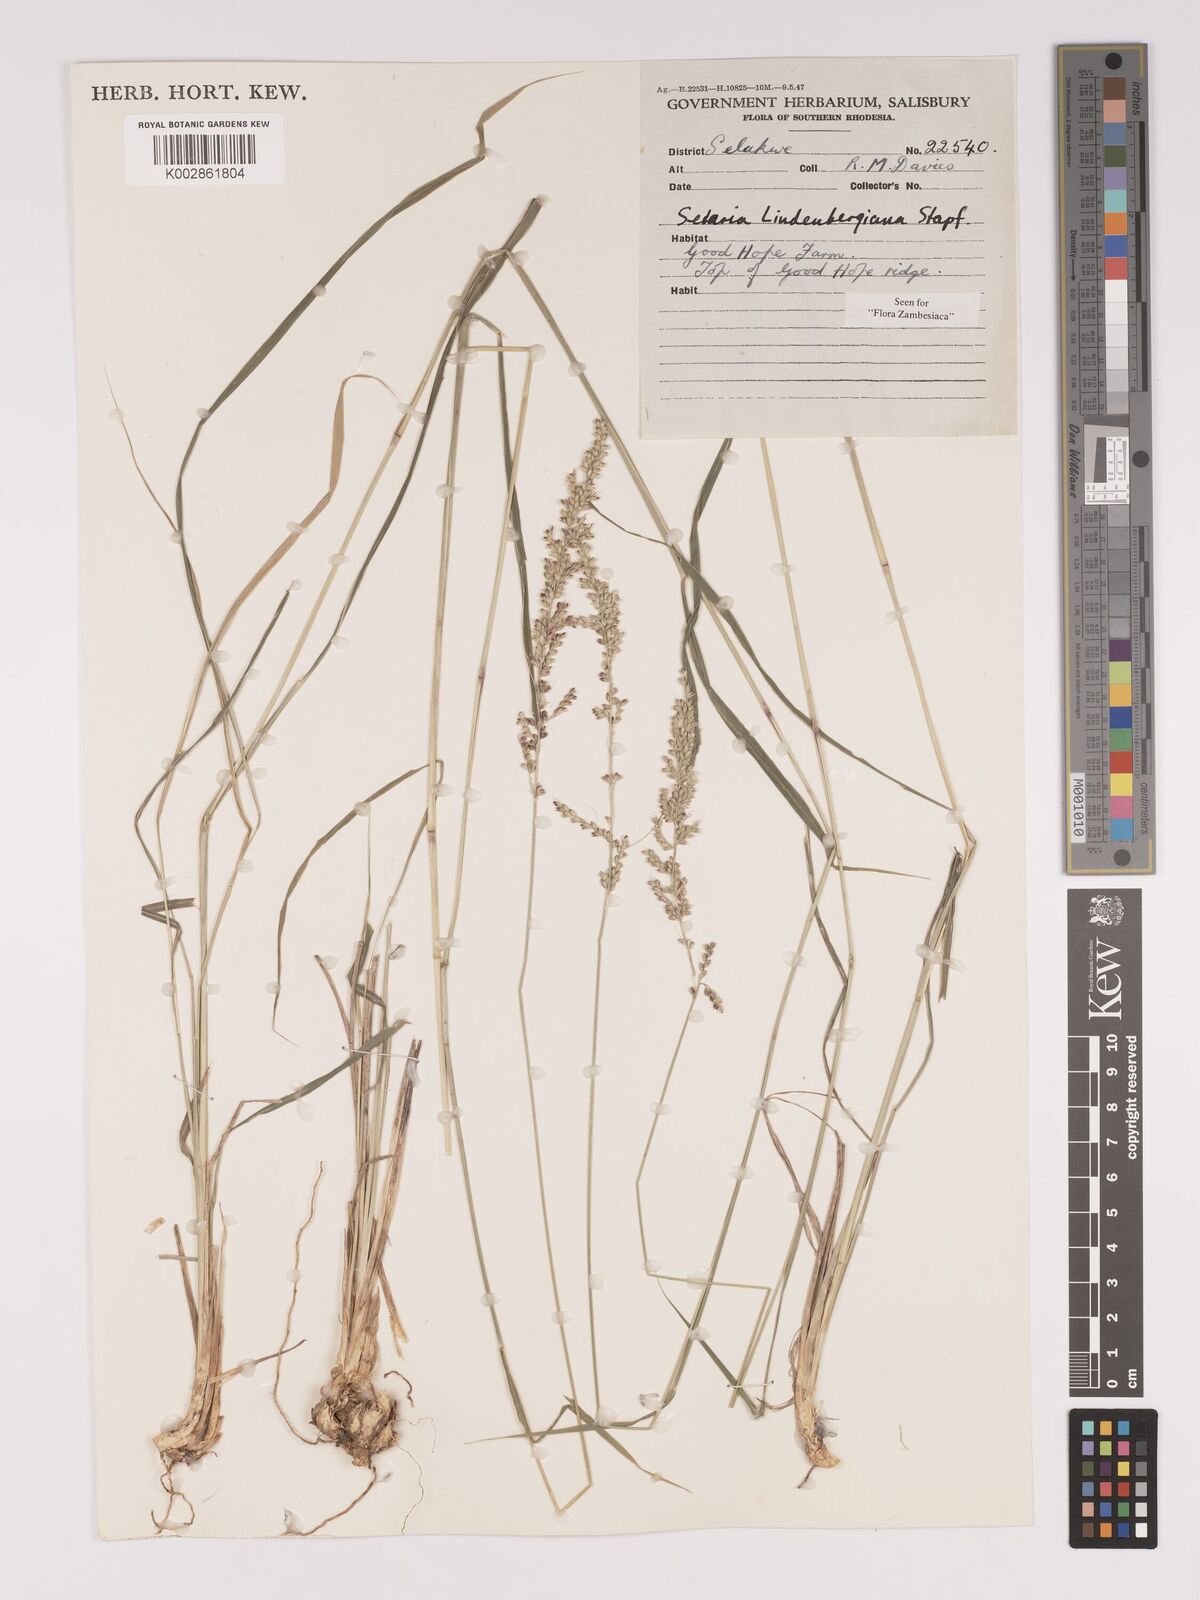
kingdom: Plantae
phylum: Tracheophyta
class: Liliopsida
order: Poales
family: Poaceae
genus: Setaria
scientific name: Setaria lindenbergiana
